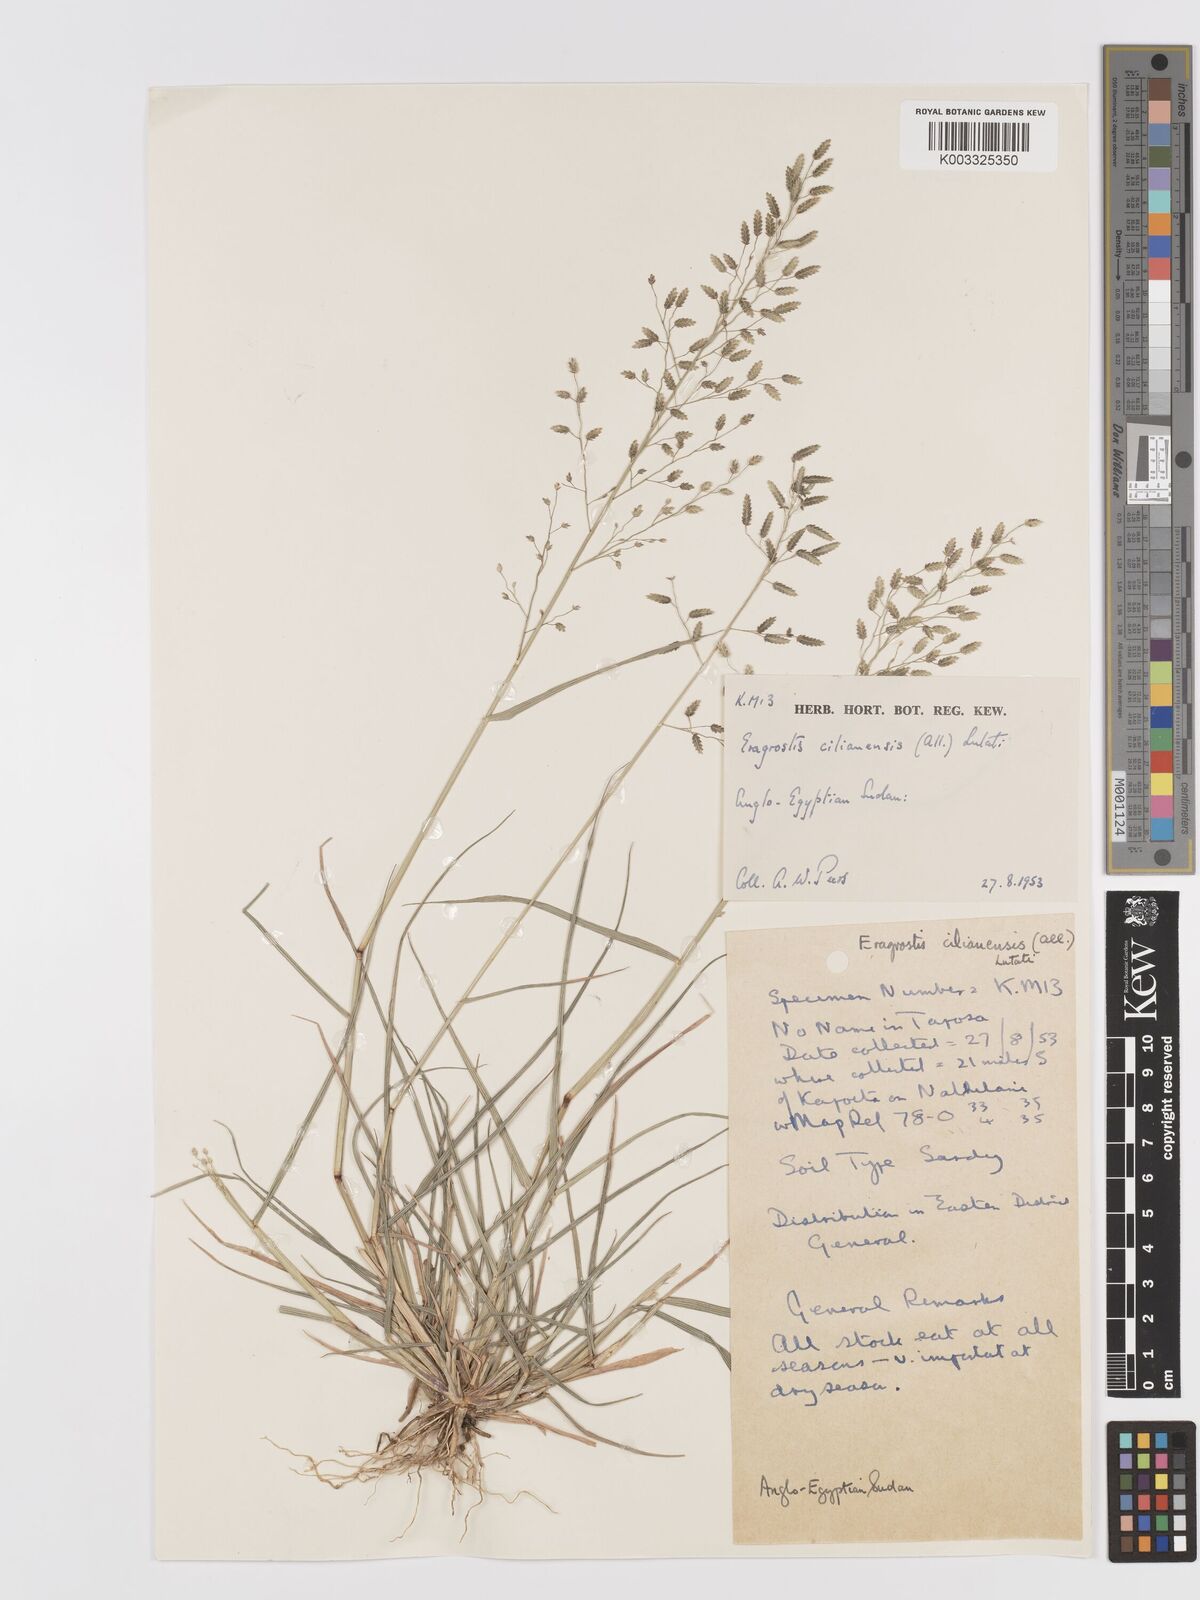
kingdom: Plantae
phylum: Tracheophyta
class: Liliopsida
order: Poales
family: Poaceae
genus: Eragrostis
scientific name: Eragrostis cilianensis
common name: Stinkgrass
